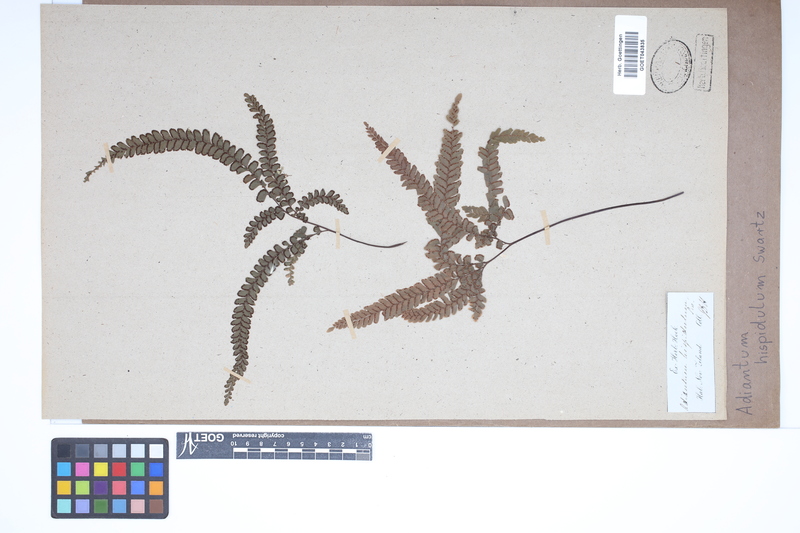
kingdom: Plantae
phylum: Tracheophyta
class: Polypodiopsida
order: Polypodiales
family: Pteridaceae
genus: Adiantum
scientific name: Adiantum hispidulum
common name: Rough maidenhair
